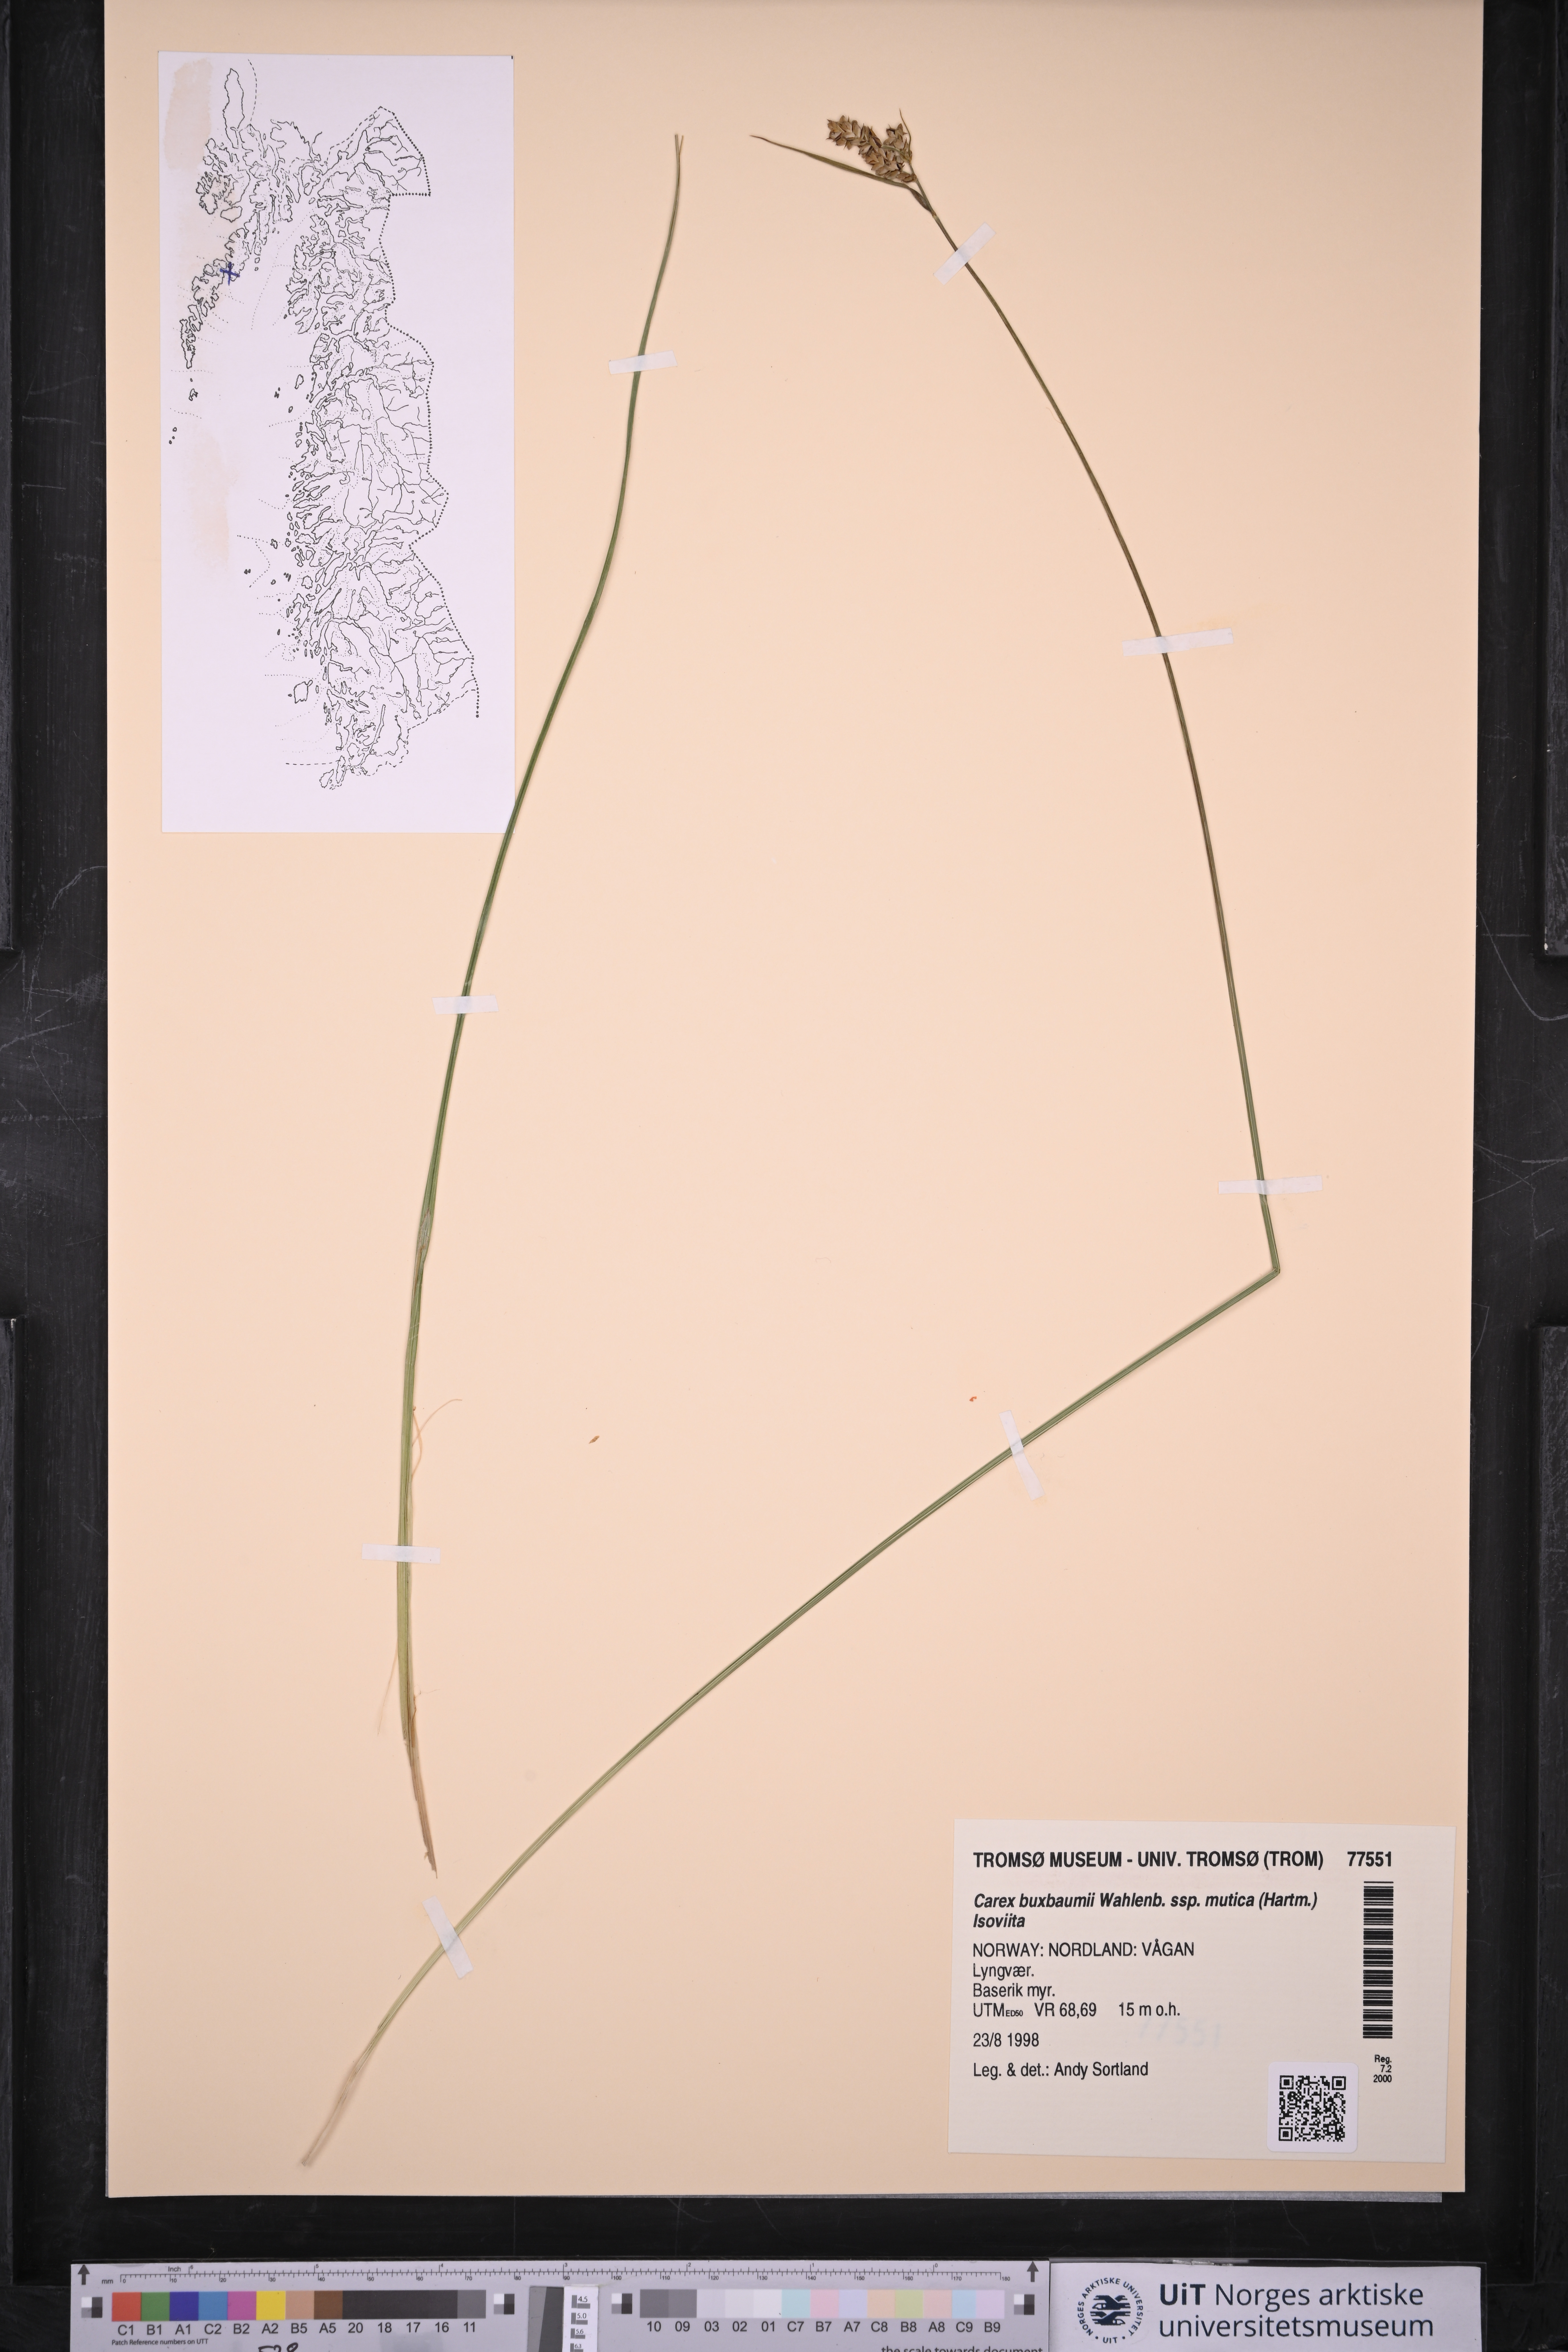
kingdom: Plantae
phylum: Tracheophyta
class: Liliopsida
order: Poales
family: Cyperaceae
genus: Carex
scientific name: Carex adelostoma
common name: Circumpolar sedge
